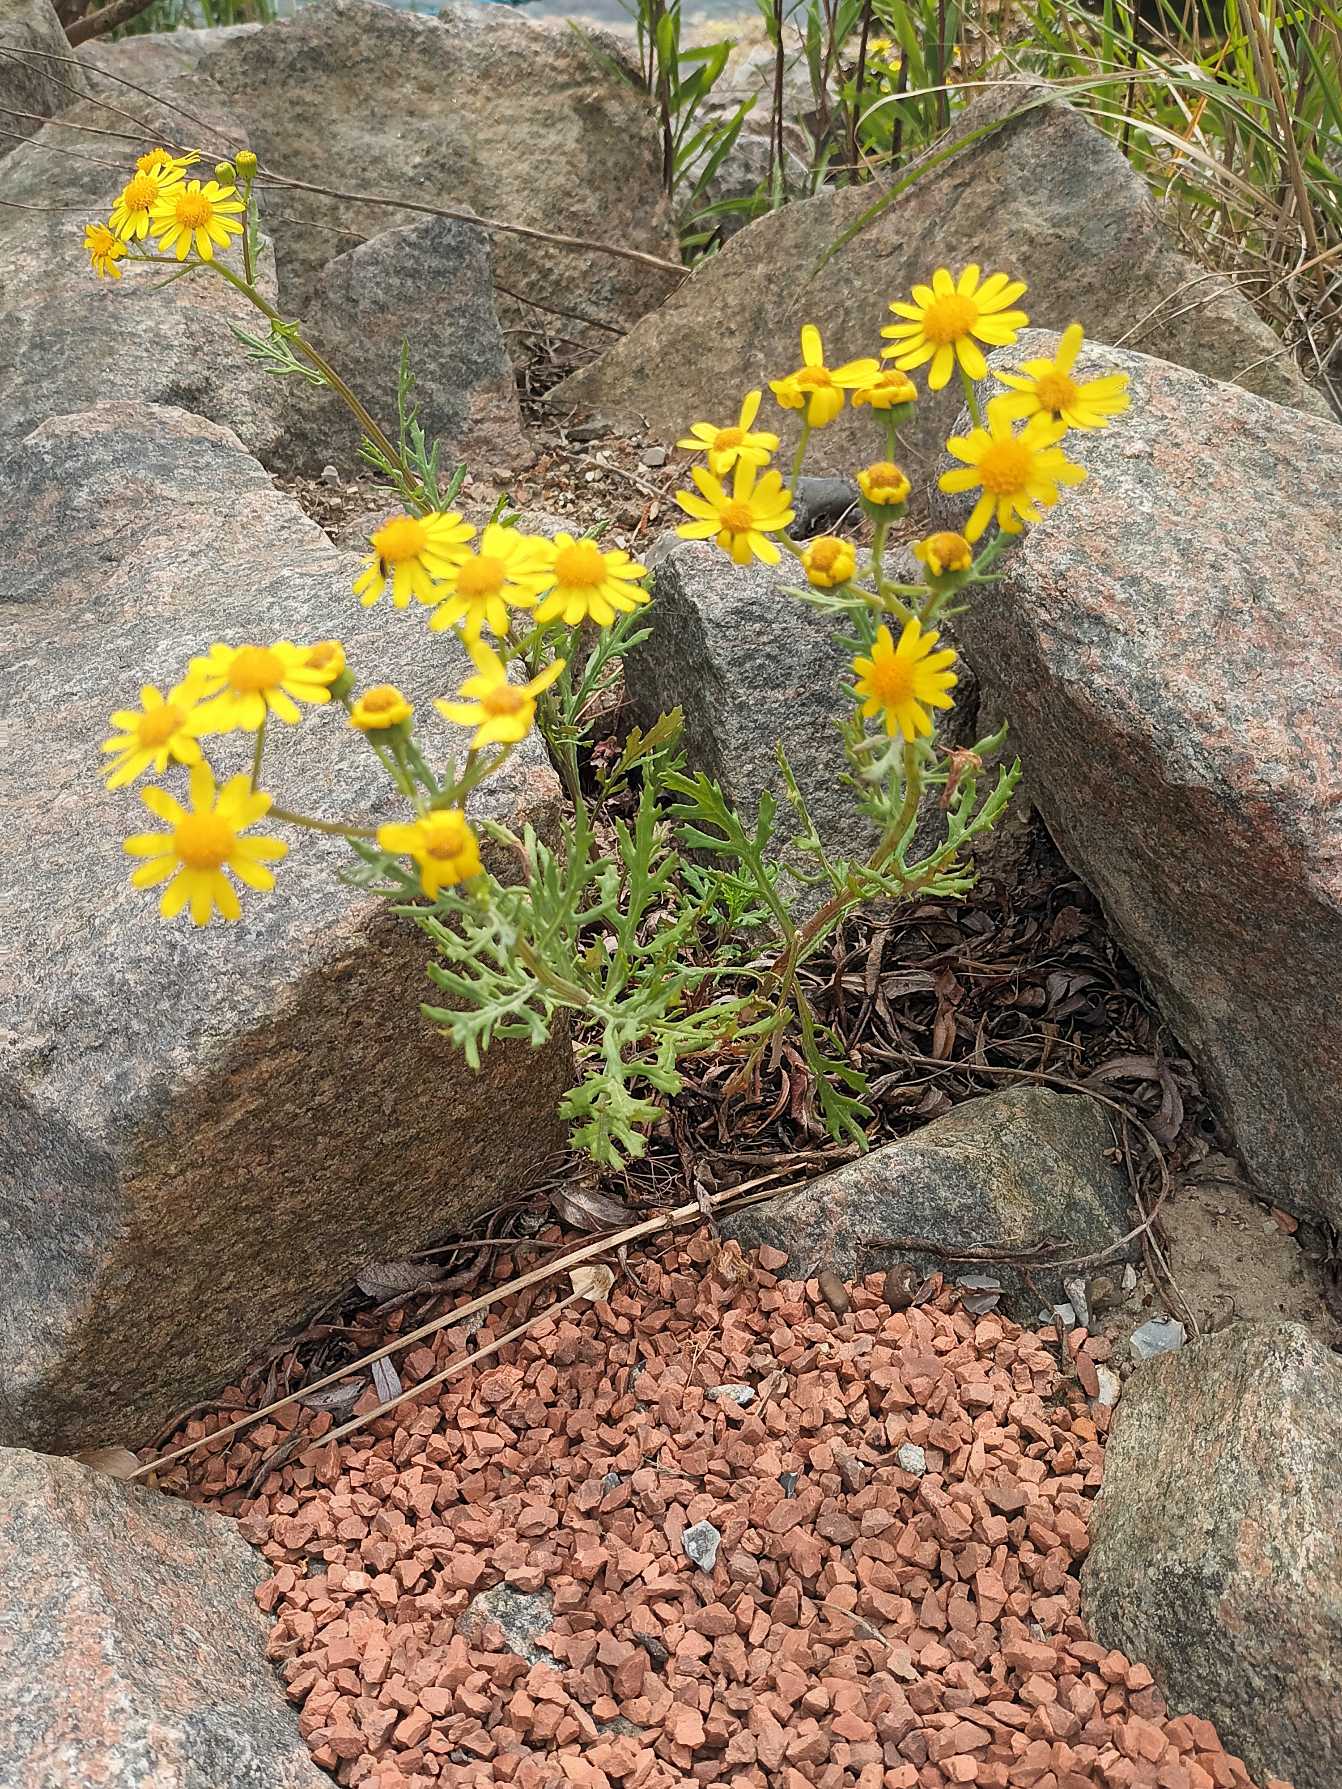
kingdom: Plantae
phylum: Tracheophyta
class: Magnoliopsida
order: Asterales
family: Asteraceae
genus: Senecio
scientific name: Senecio squalidus
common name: Italiensk brandbæger
